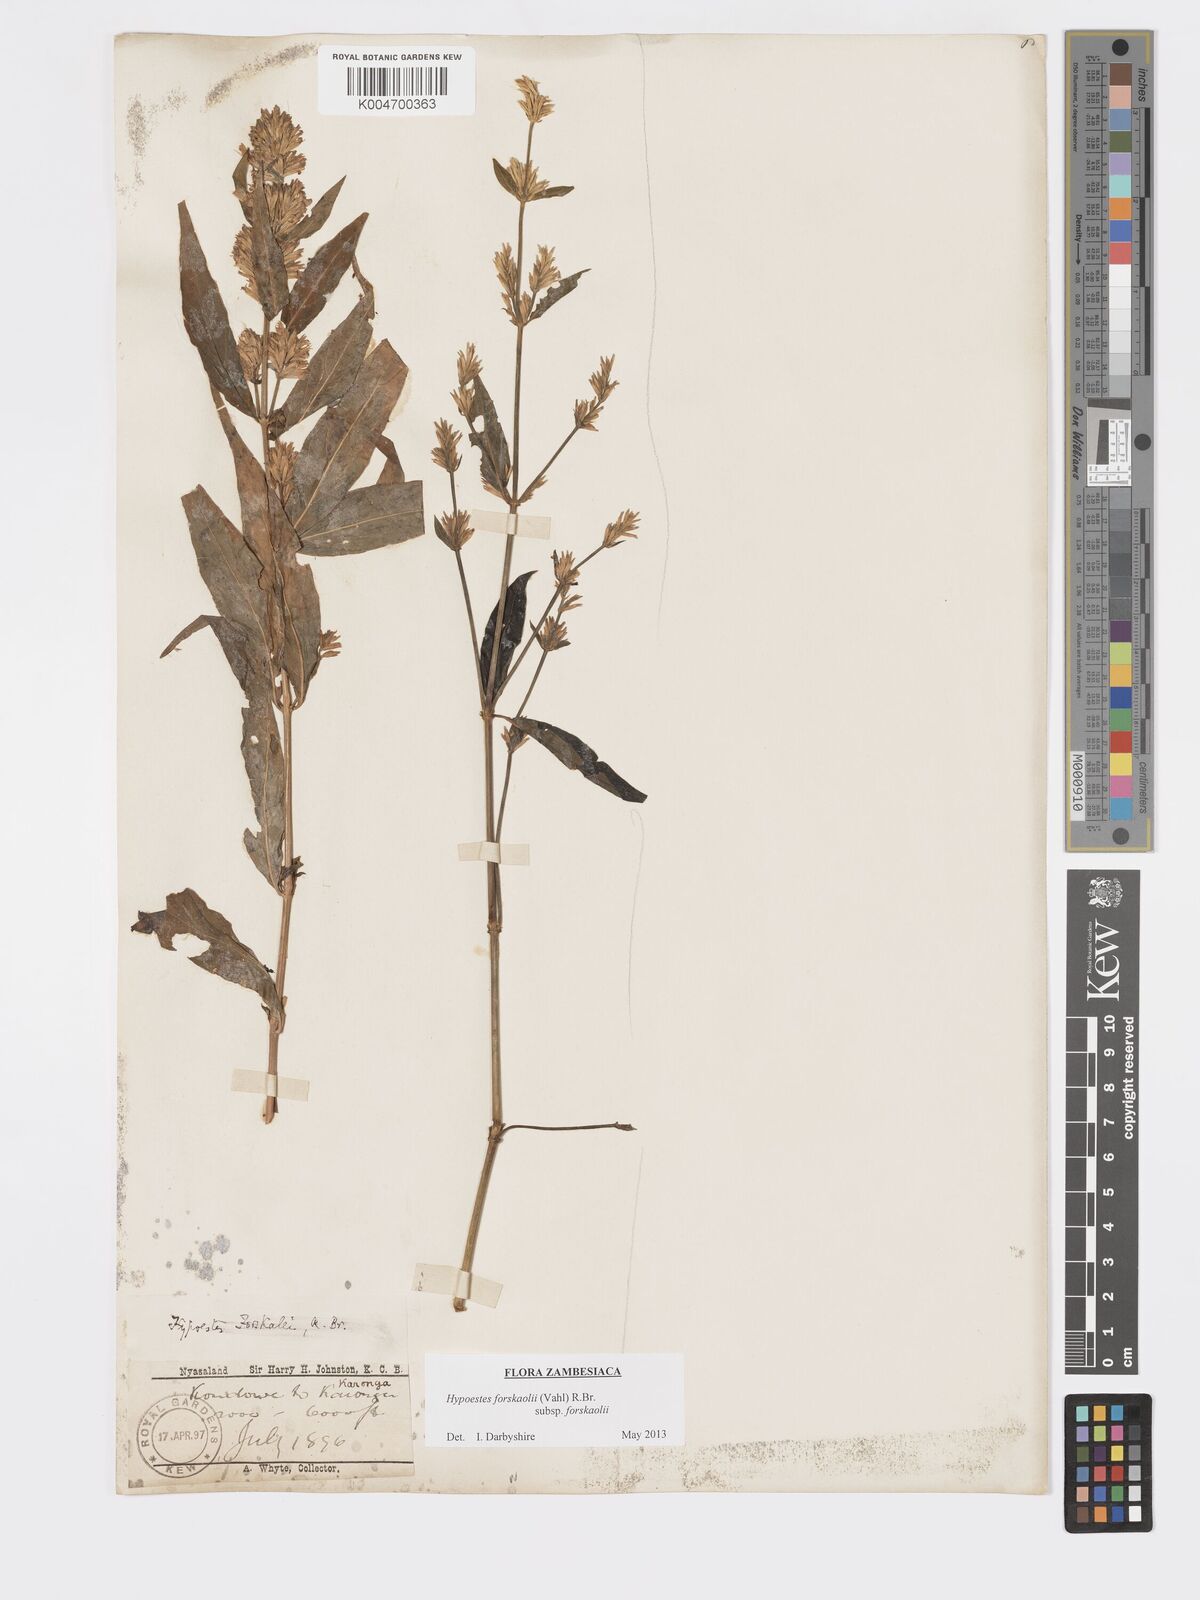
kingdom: Plantae
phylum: Tracheophyta
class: Magnoliopsida
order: Lamiales
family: Acanthaceae
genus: Hypoestes
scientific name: Hypoestes forskaolii
